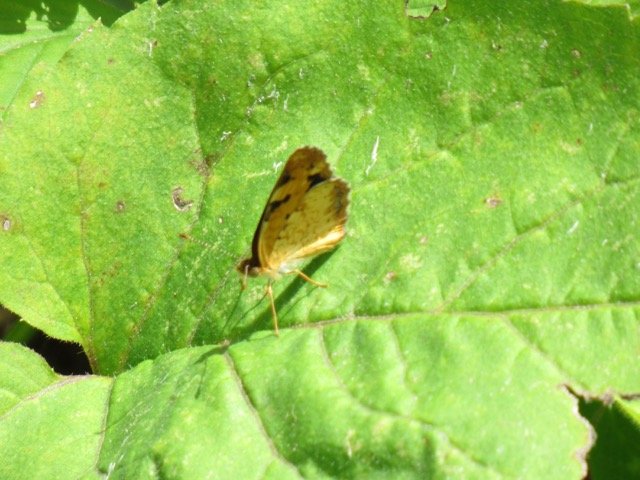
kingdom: Animalia
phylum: Arthropoda
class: Insecta
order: Lepidoptera
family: Nymphalidae
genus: Phyciodes
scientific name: Phyciodes tharos
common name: Pearl Crescent
